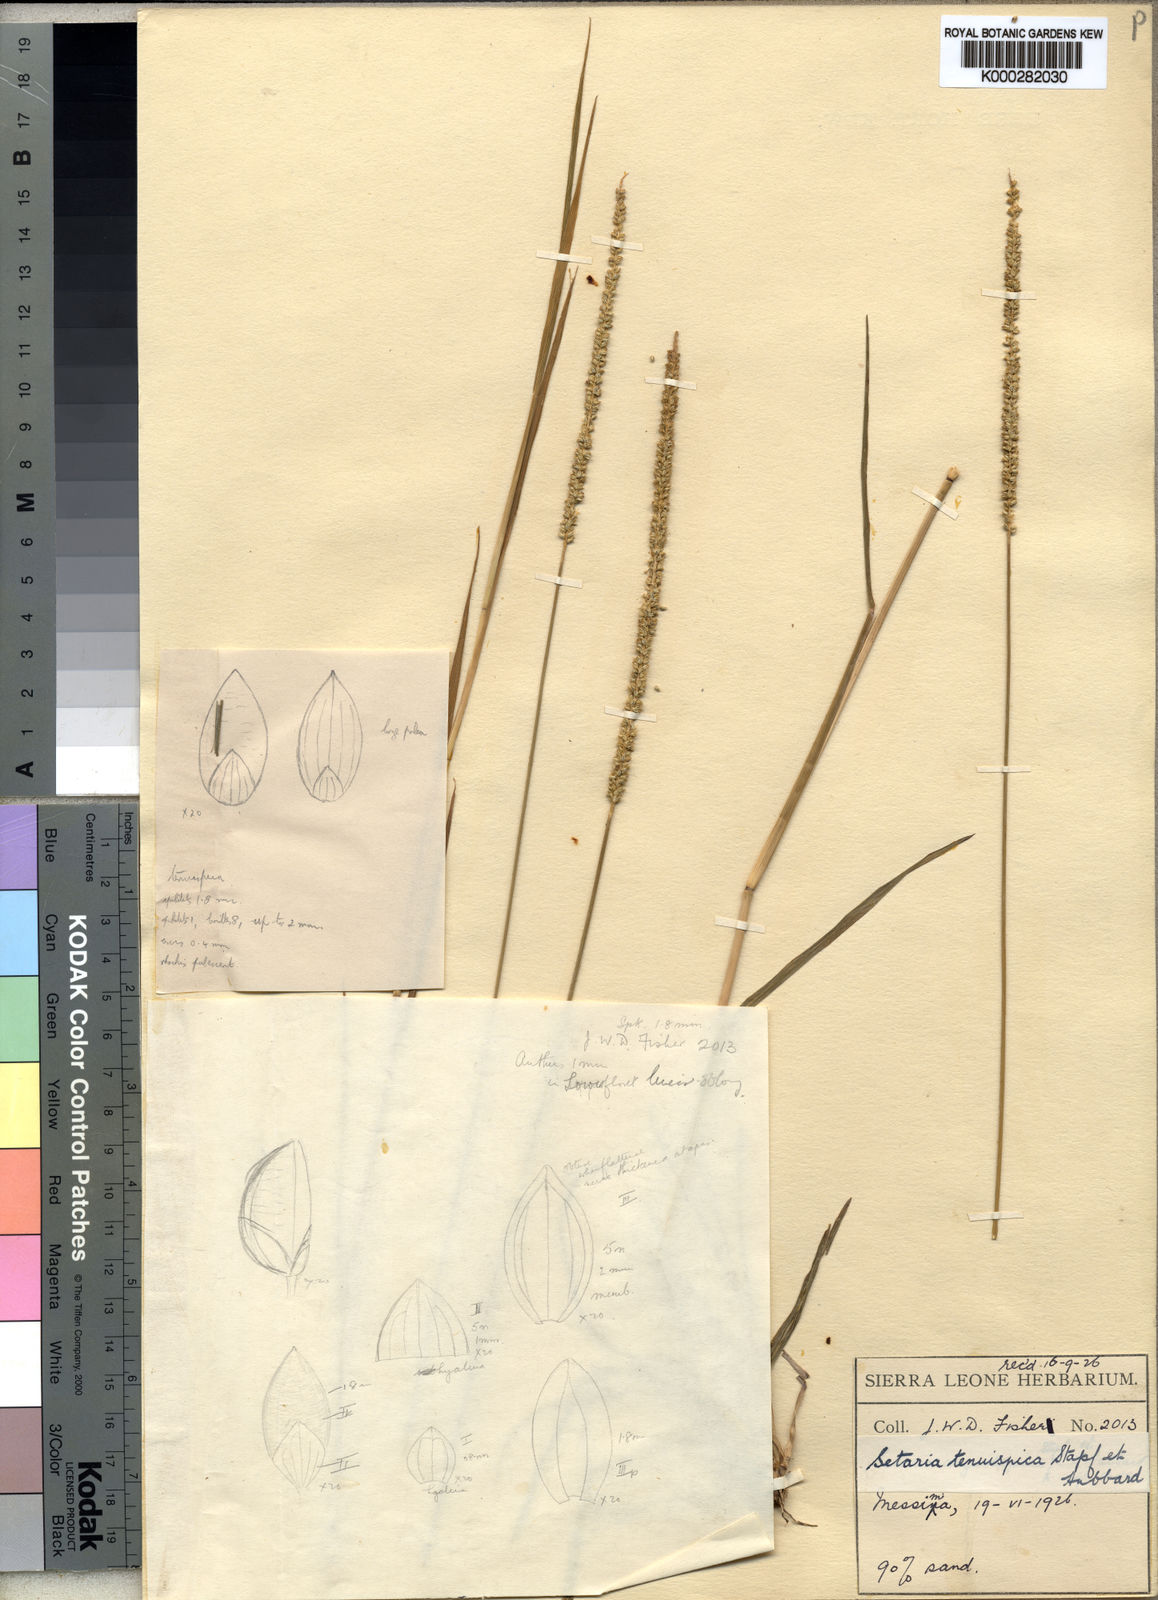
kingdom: Plantae
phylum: Tracheophyta
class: Liliopsida
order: Poales
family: Poaceae
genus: Setaria
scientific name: Setaria sphacelata
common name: African bristlegrass
